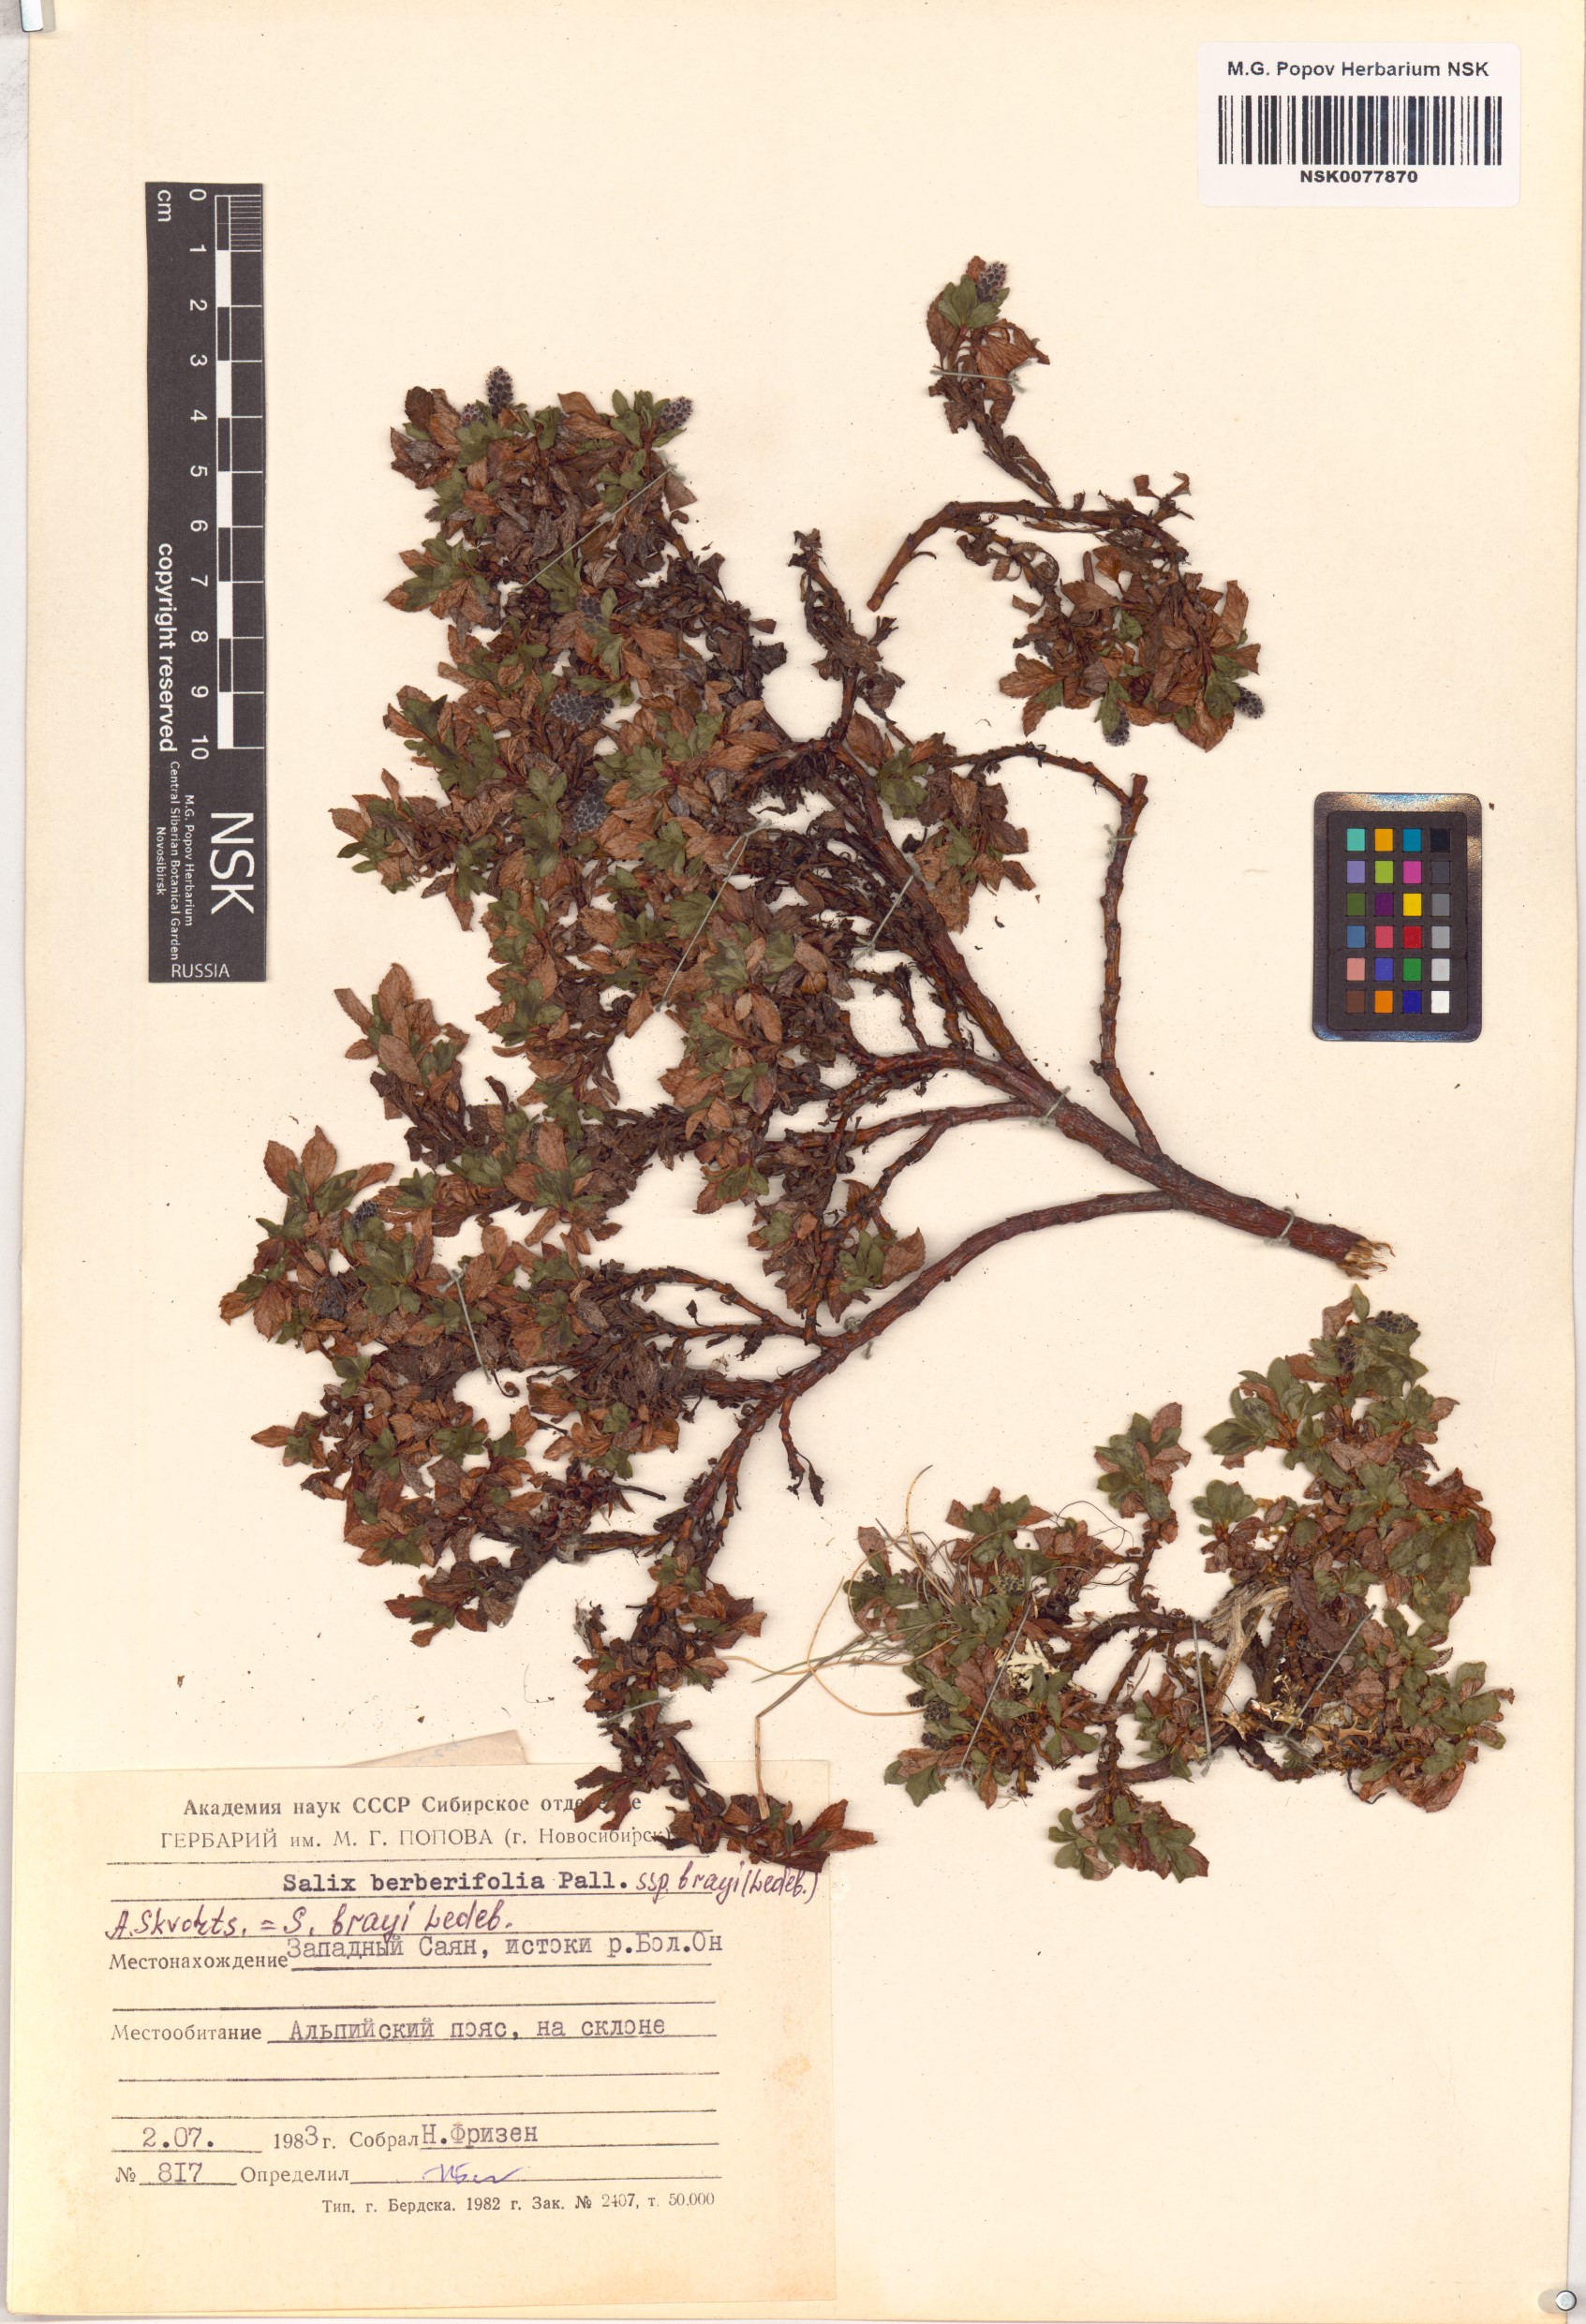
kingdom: Plantae
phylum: Tracheophyta
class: Magnoliopsida
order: Malpighiales
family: Salicaceae
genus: Salix
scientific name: Salix berberifolia
